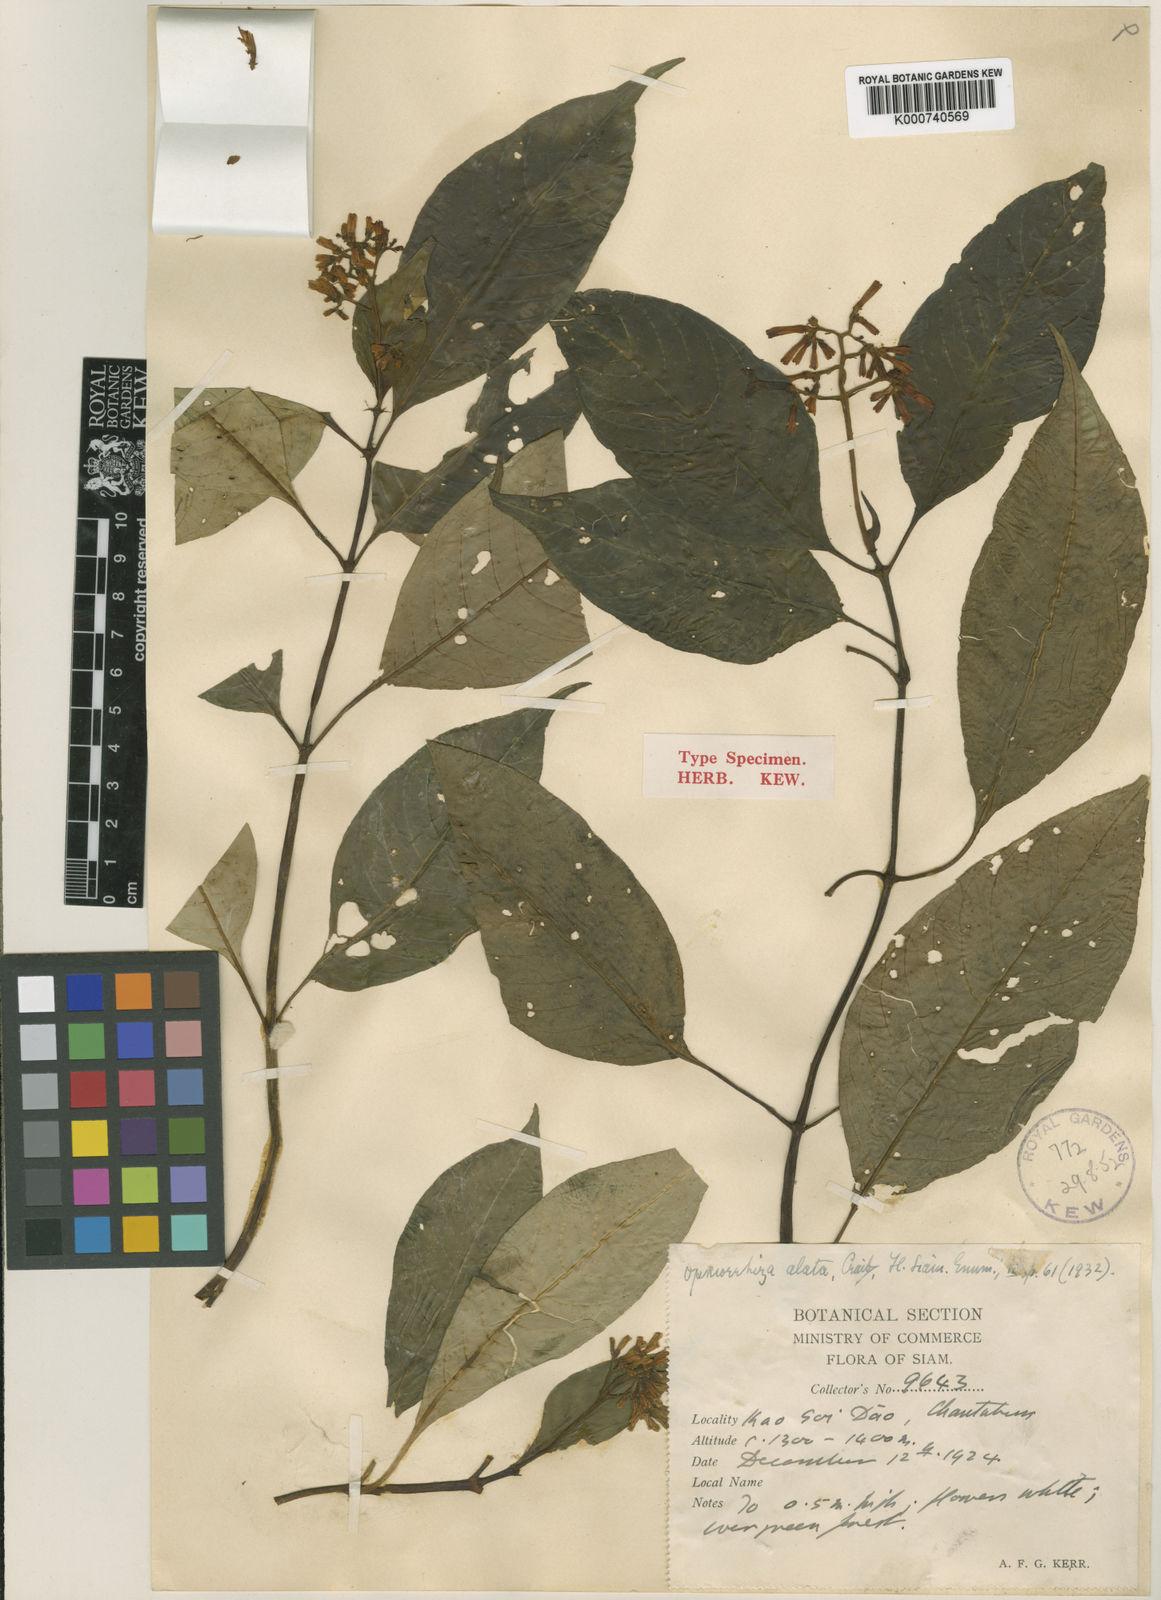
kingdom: Plantae
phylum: Tracheophyta
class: Magnoliopsida
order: Gentianales
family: Rubiaceae
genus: Ophiorrhiza
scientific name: Ophiorrhiza alata
